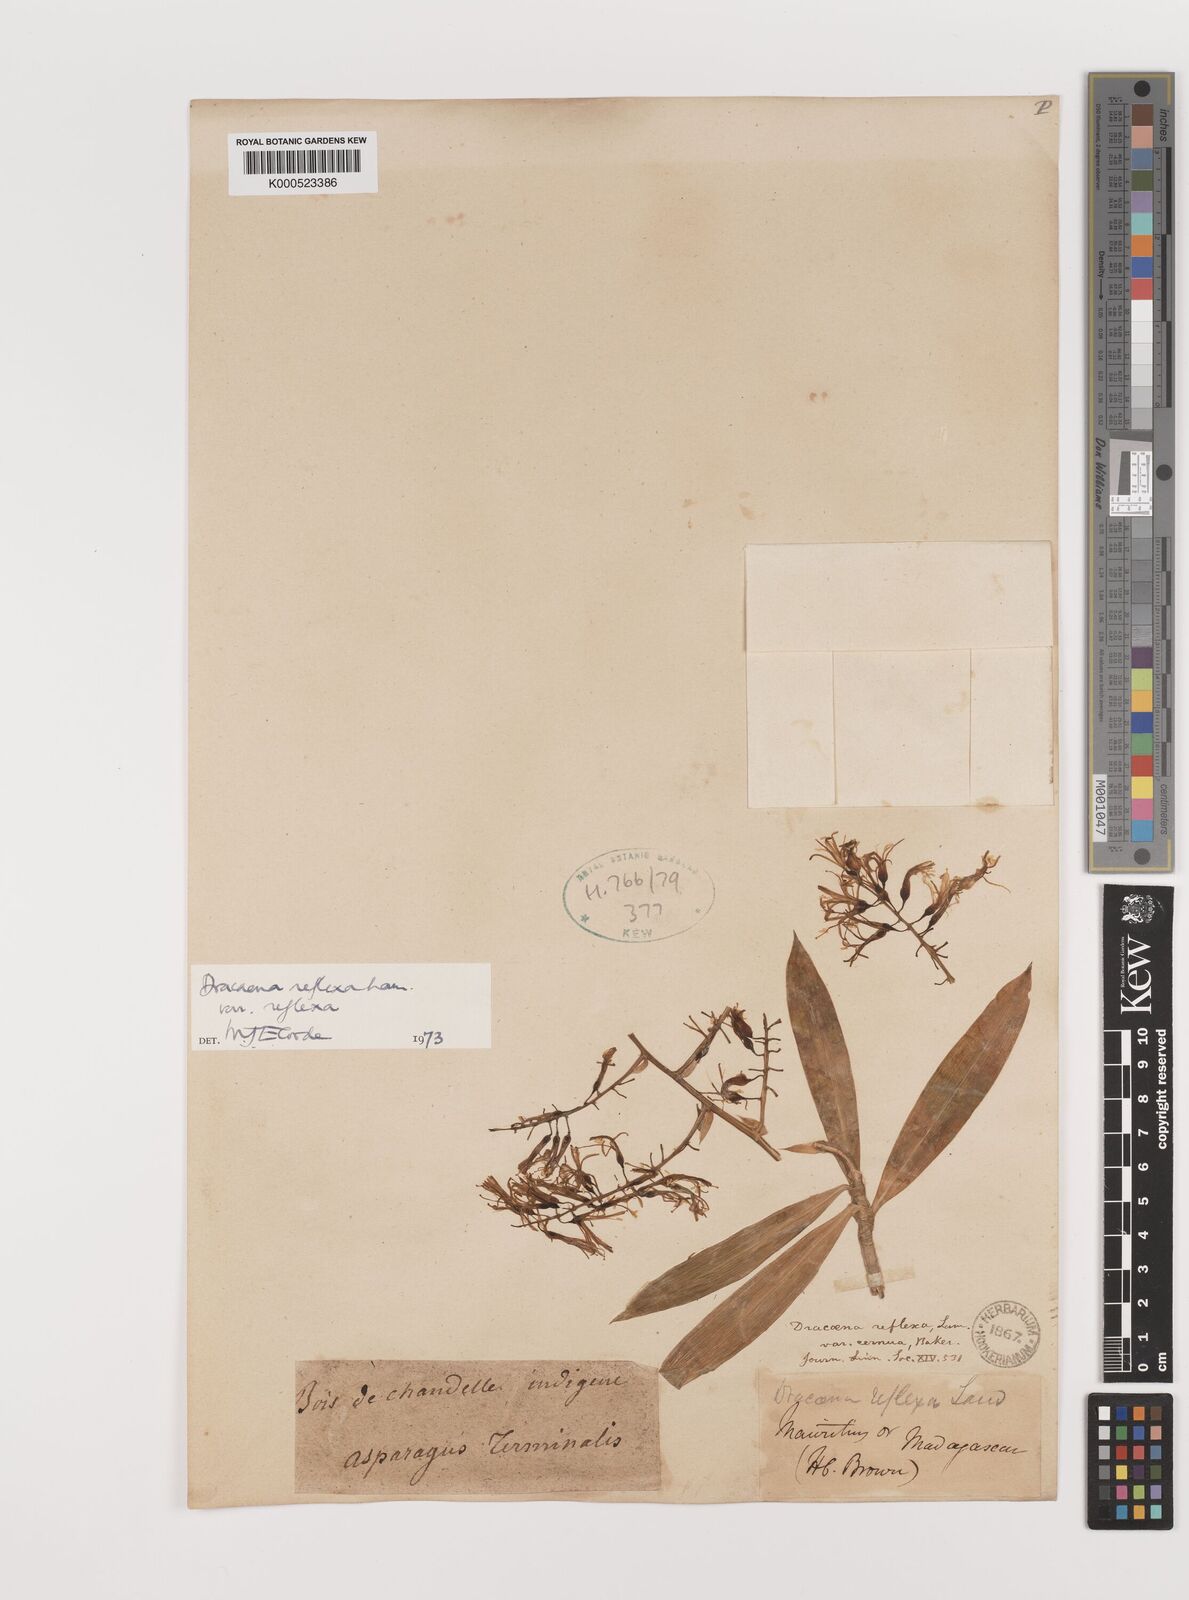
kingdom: Plantae
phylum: Tracheophyta
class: Liliopsida
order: Asparagales
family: Asparagaceae
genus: Dracaena
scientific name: Dracaena reflexa
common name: Song-of-india
